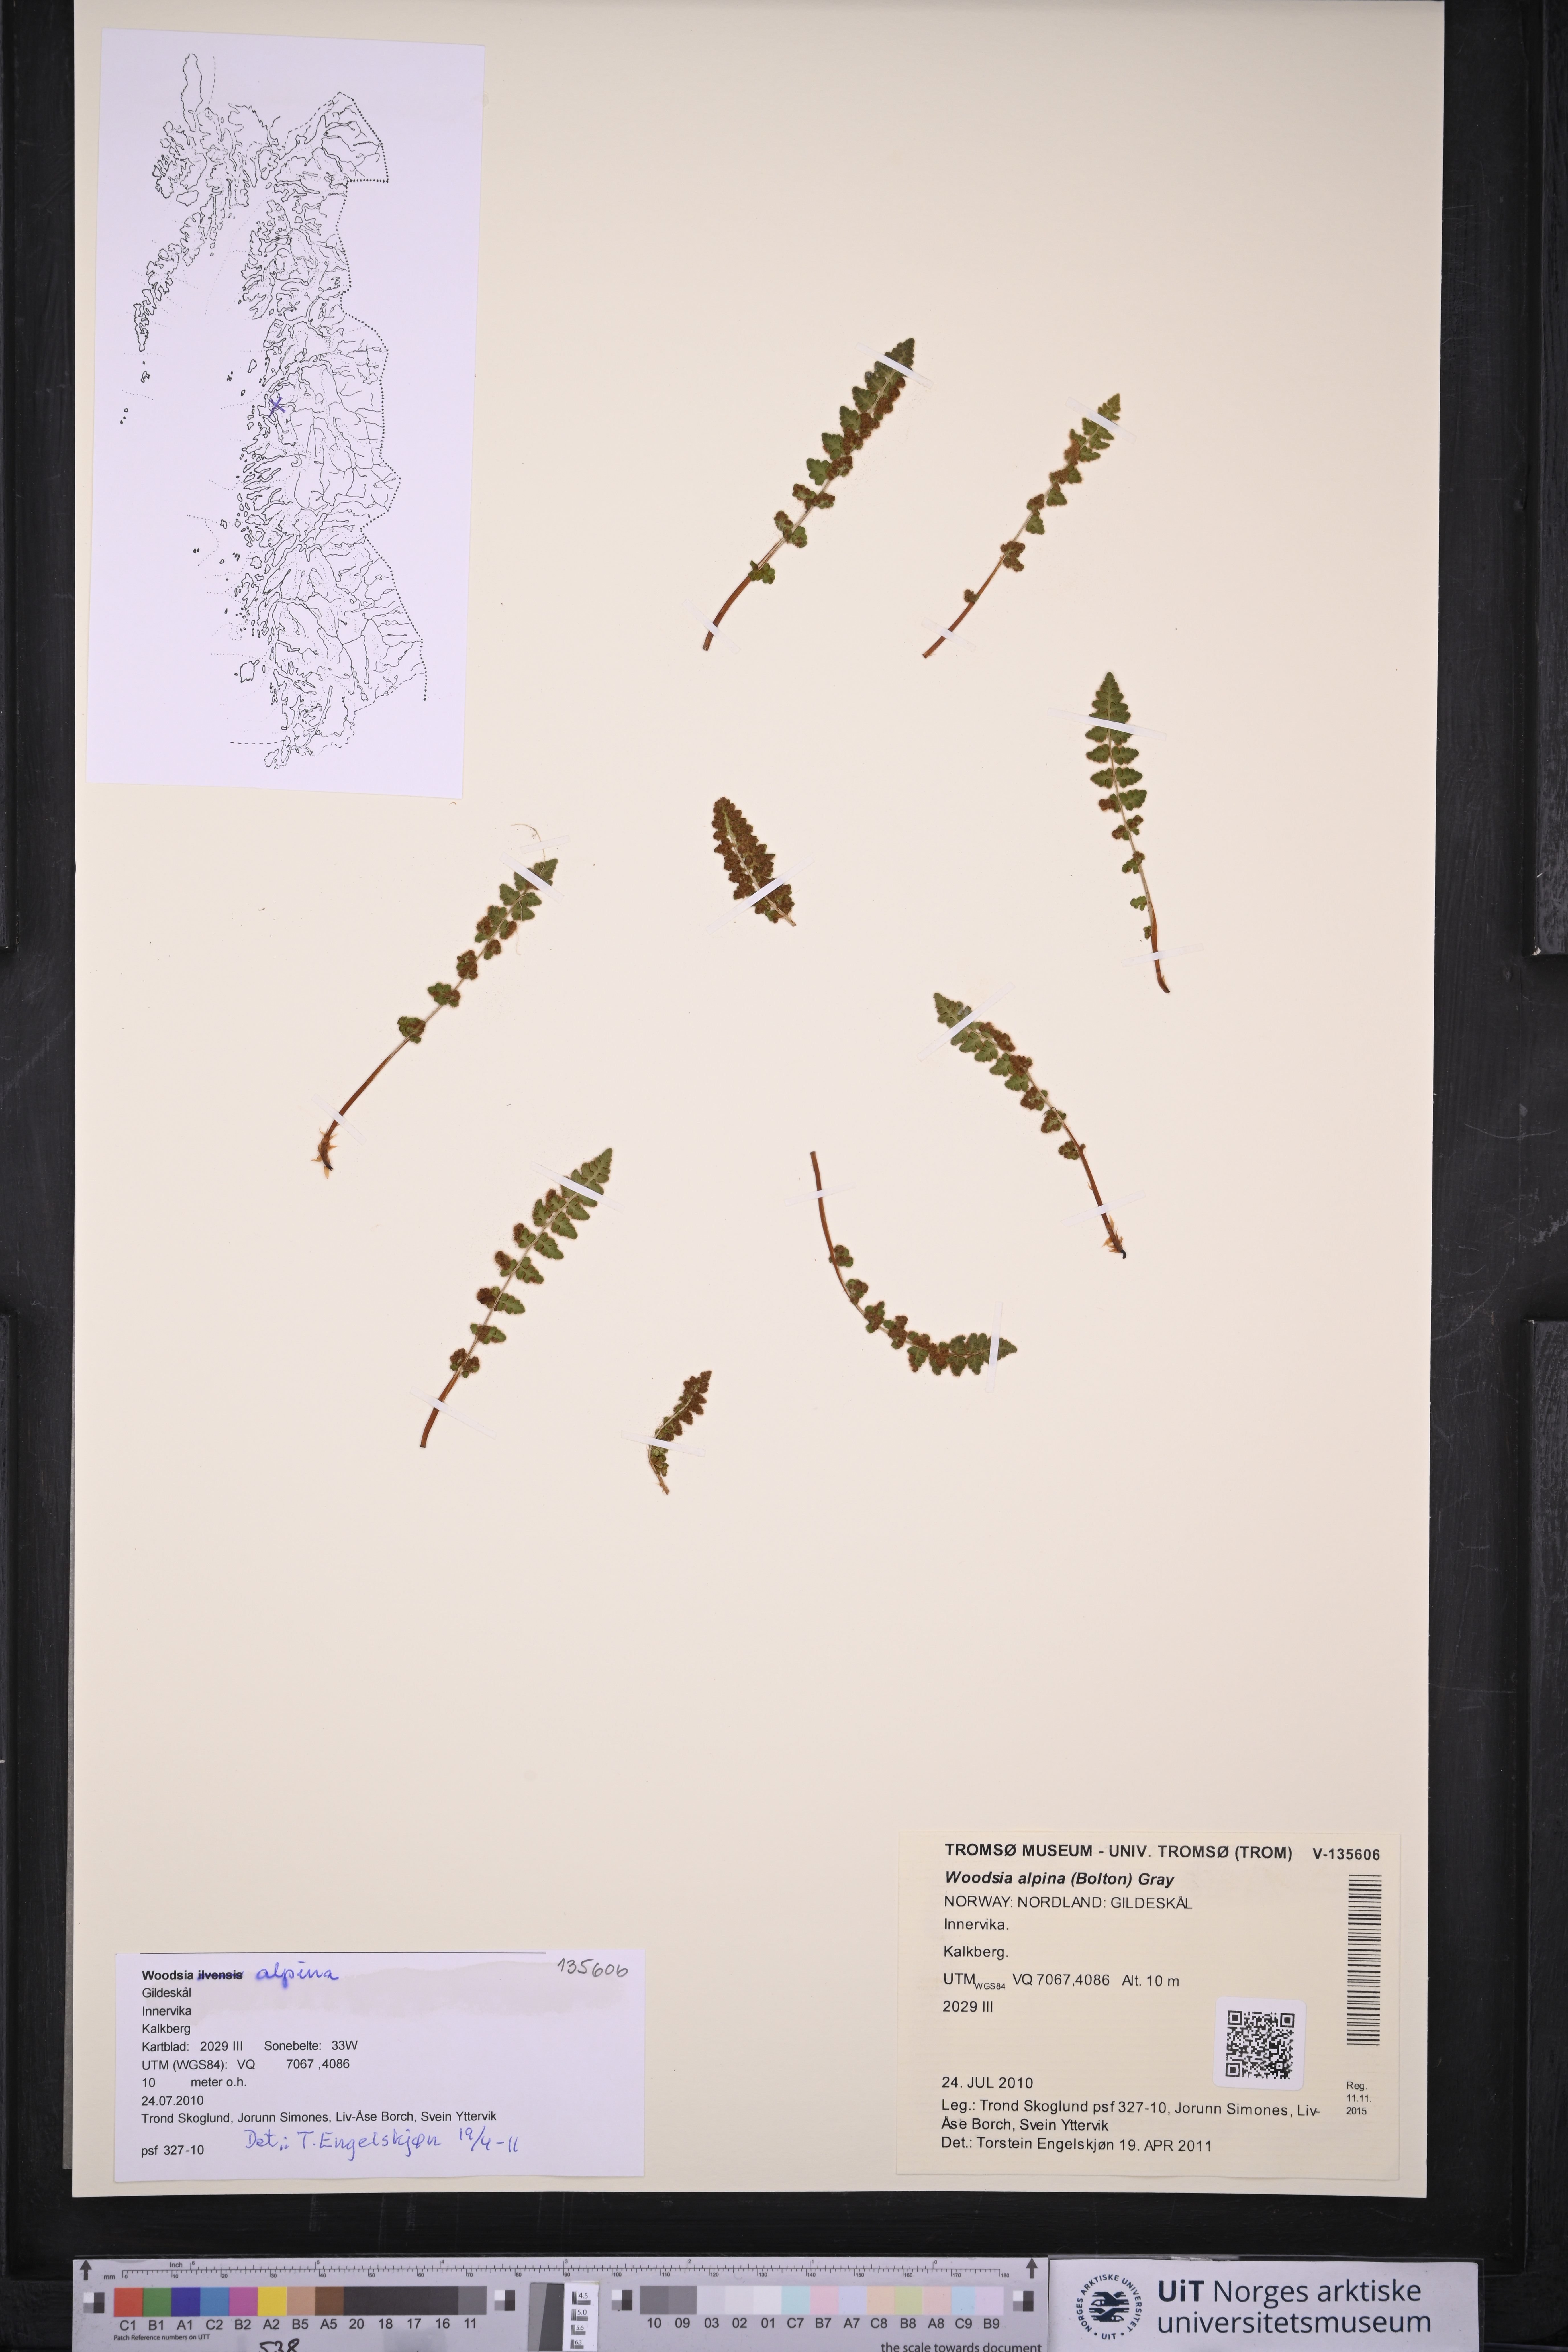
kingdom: Plantae
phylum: Tracheophyta
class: Polypodiopsida
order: Polypodiales
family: Woodsiaceae
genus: Woodsia
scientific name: Woodsia alpina
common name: Alpine woodsia
